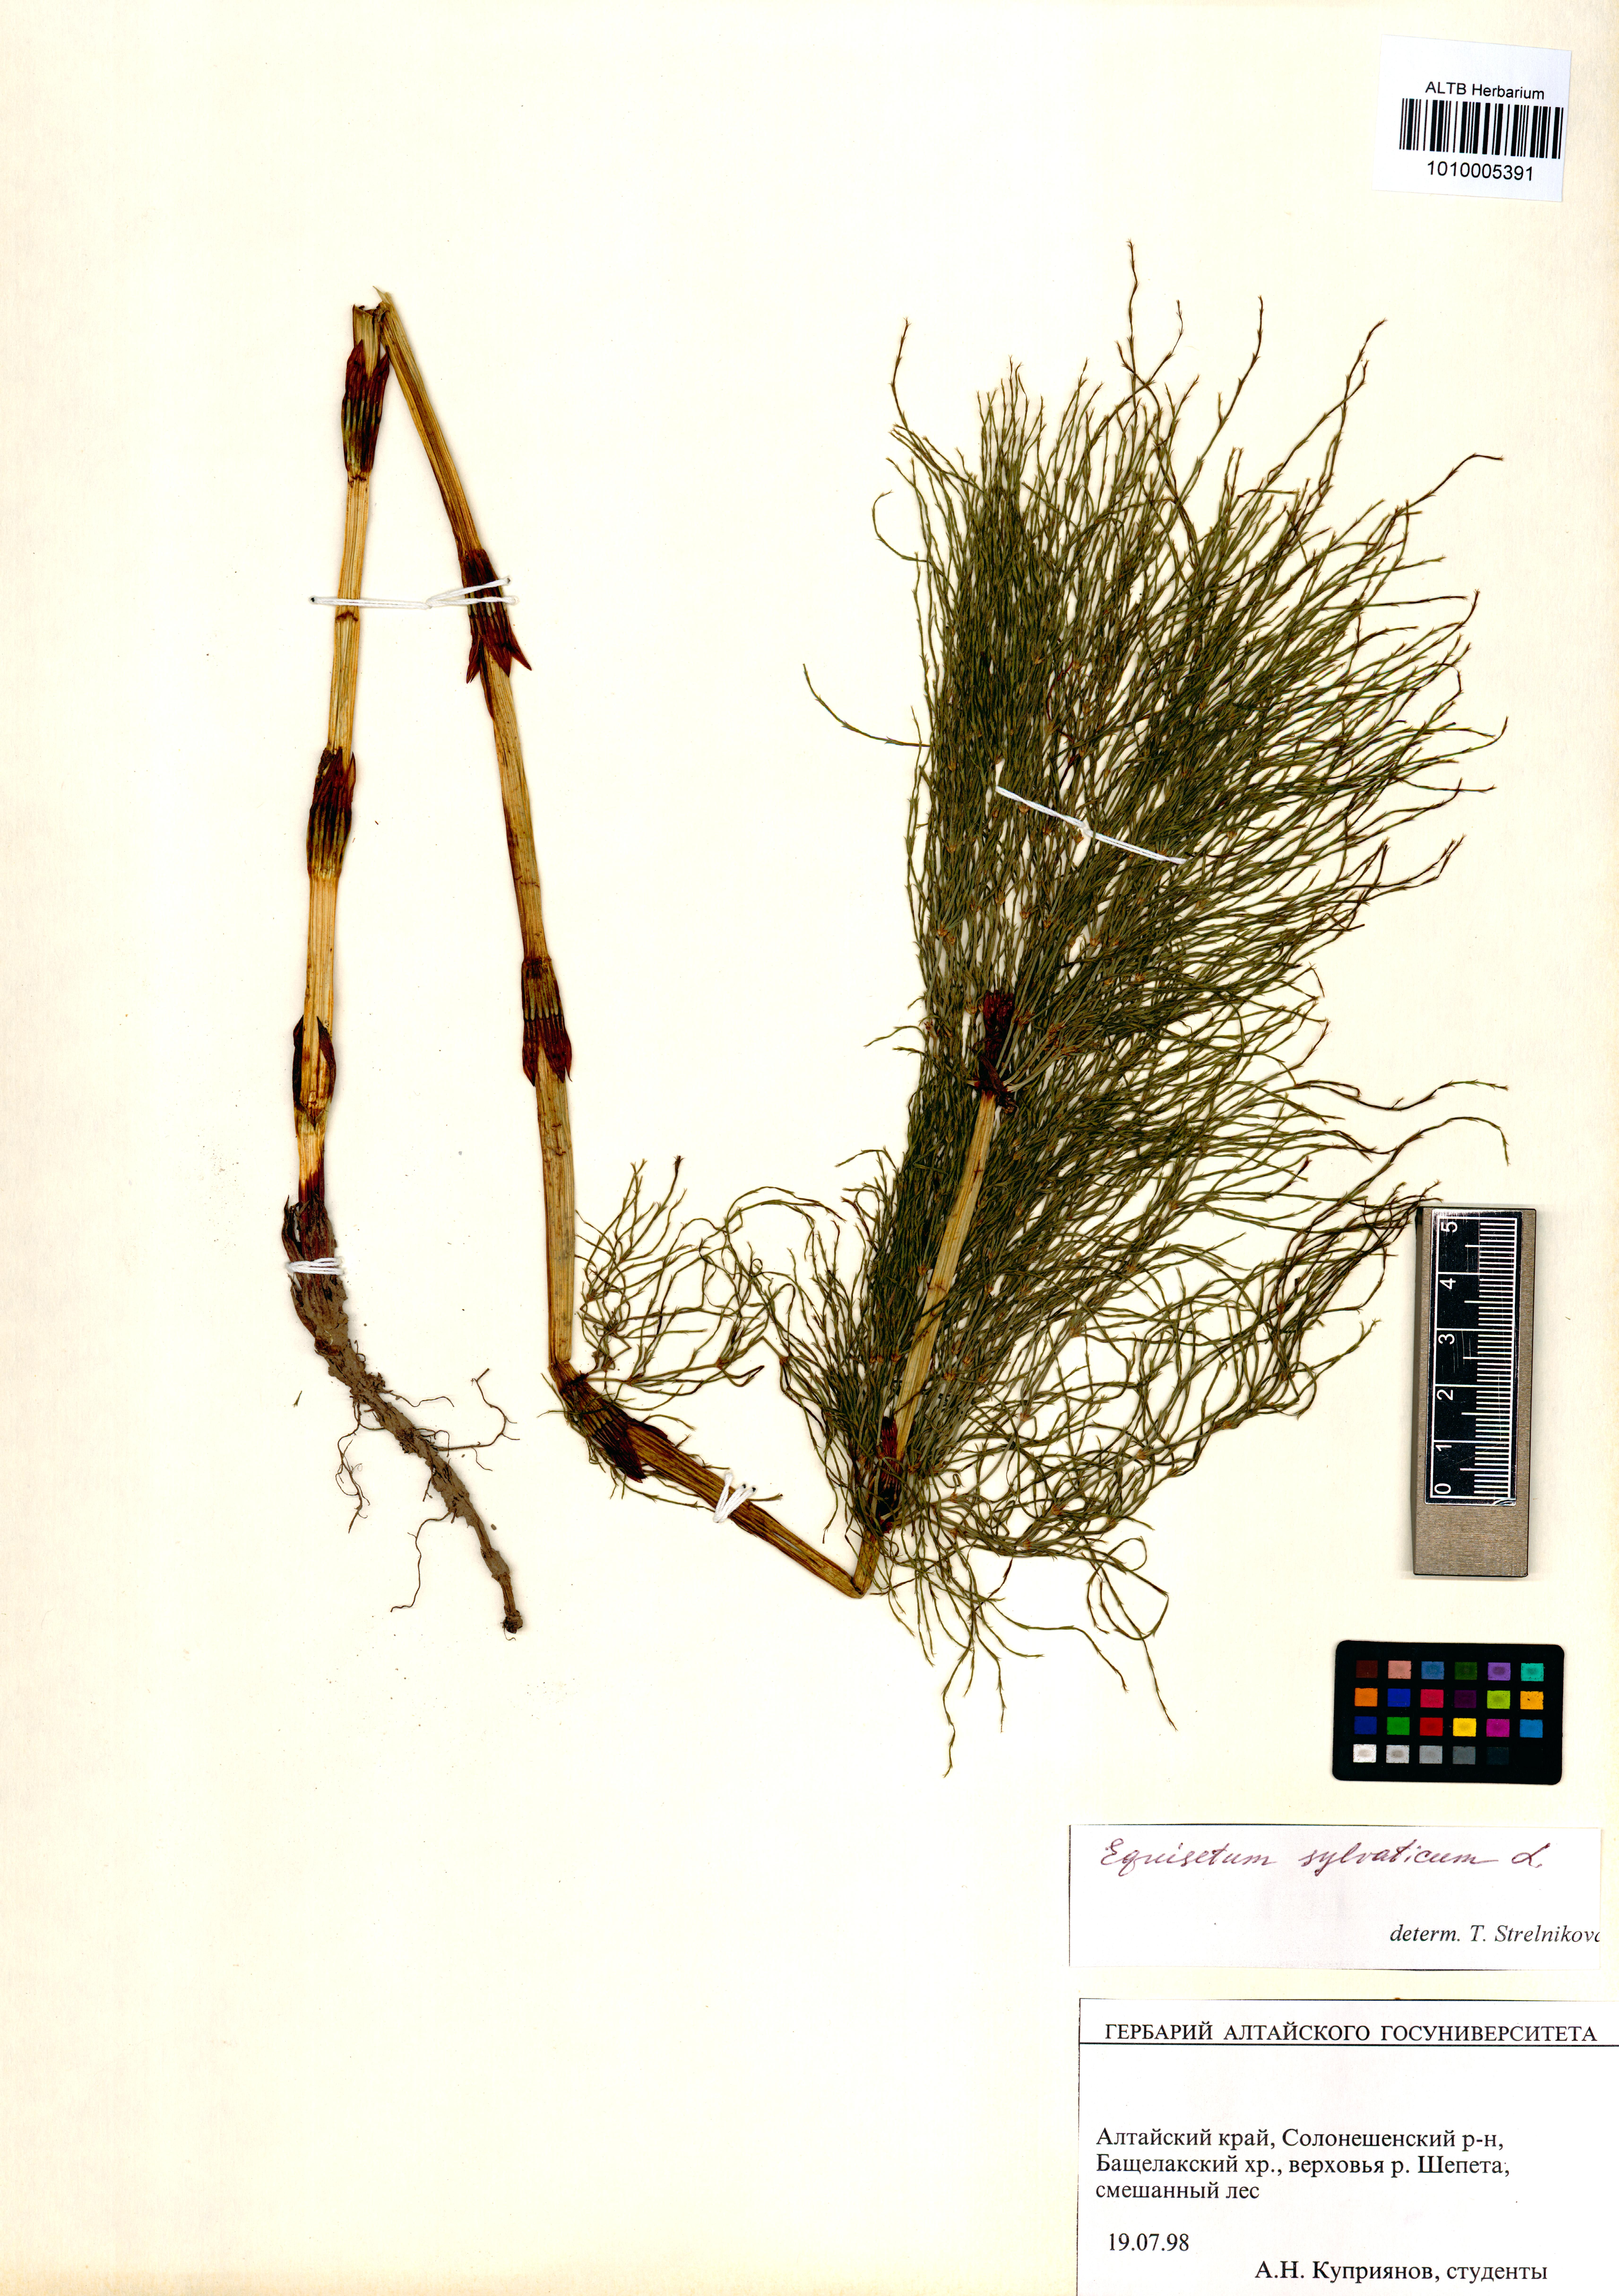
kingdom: Plantae
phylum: Tracheophyta
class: Polypodiopsida
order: Equisetales
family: Equisetaceae
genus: Equisetum
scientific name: Equisetum sylvaticum
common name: Wood horsetail
